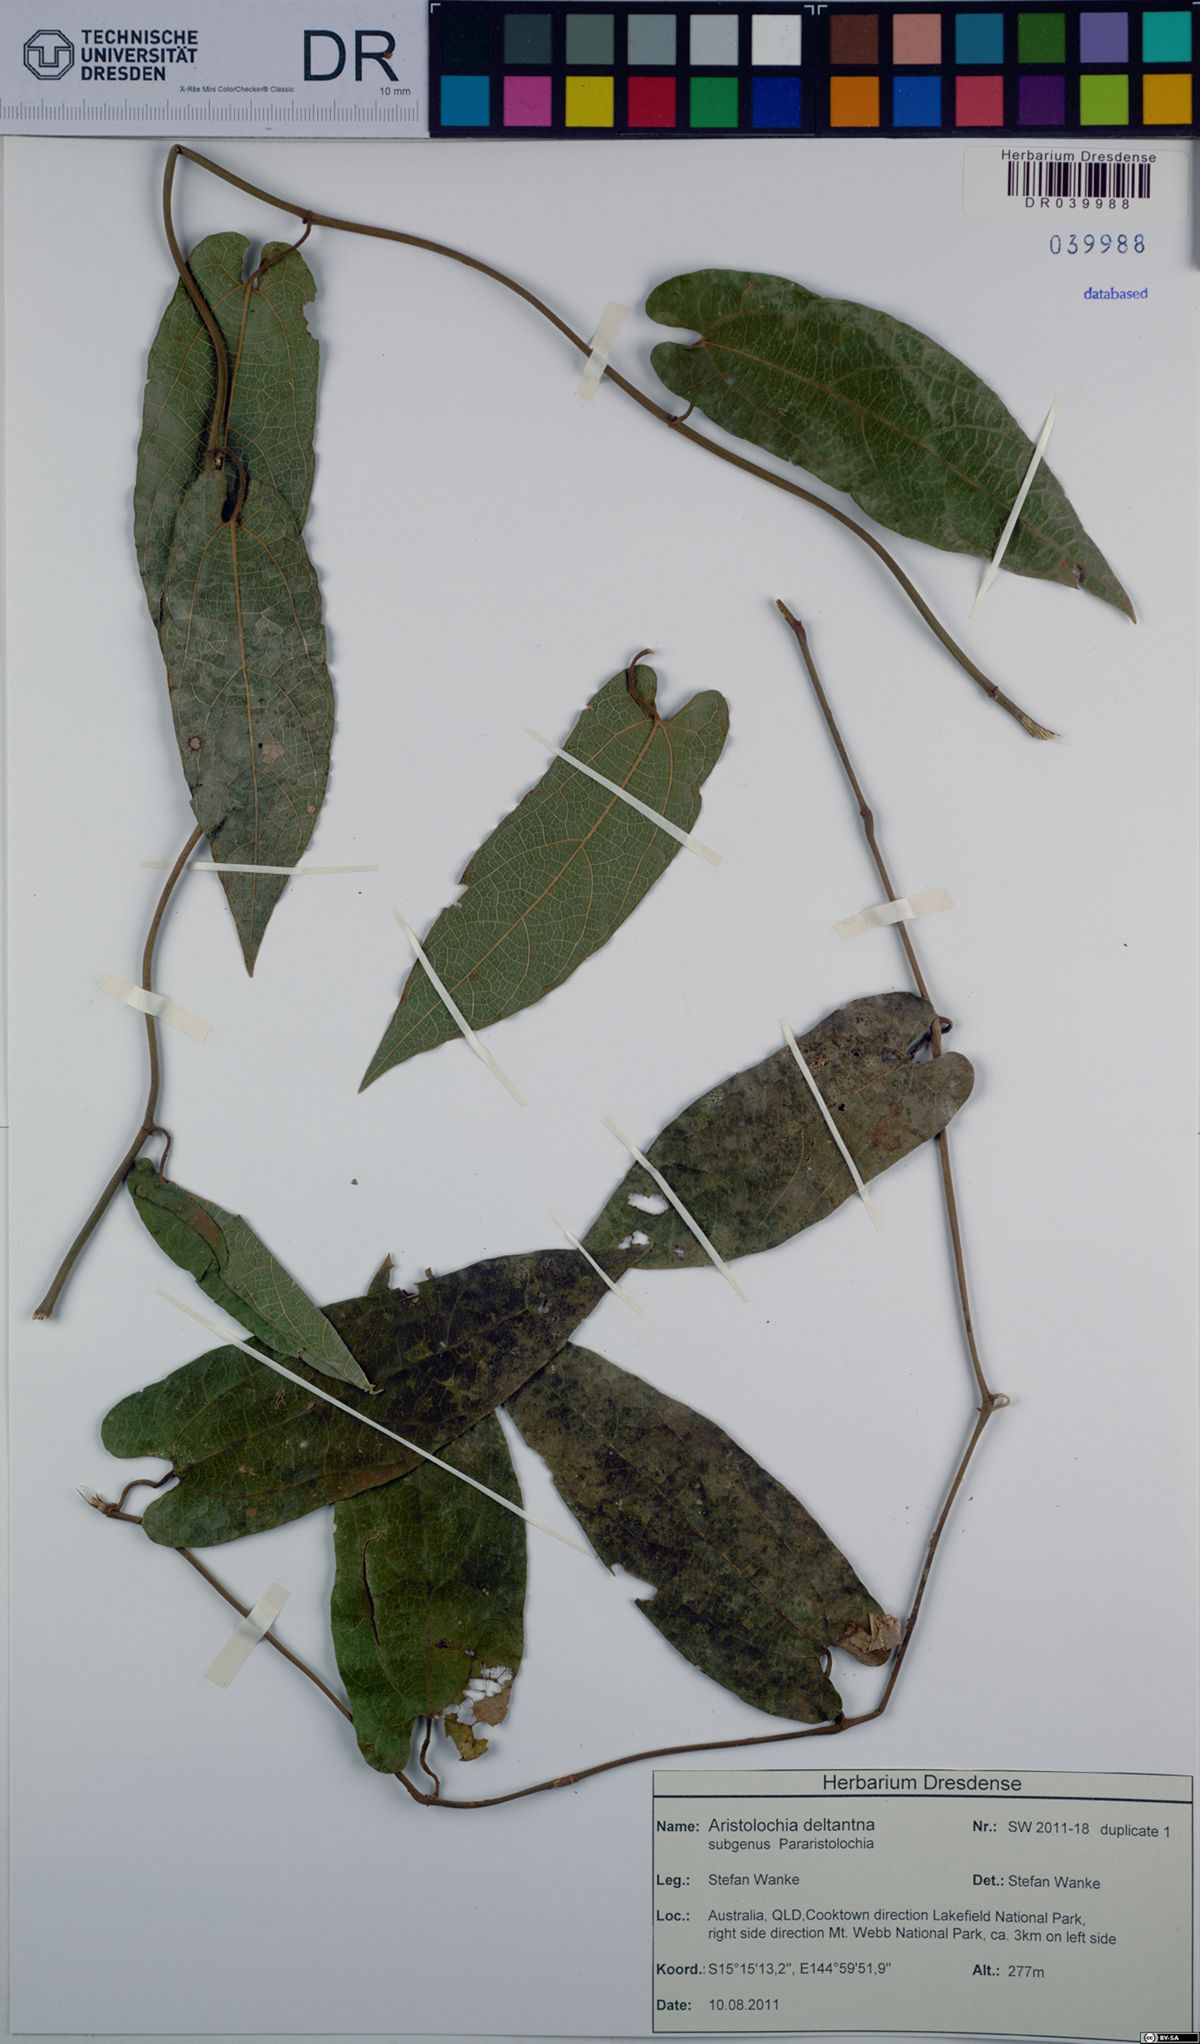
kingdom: Plantae
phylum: Tracheophyta
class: Magnoliopsida
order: Piperales
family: Aristolochiaceae
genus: Aristolochia
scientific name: Aristolochia deltantha
